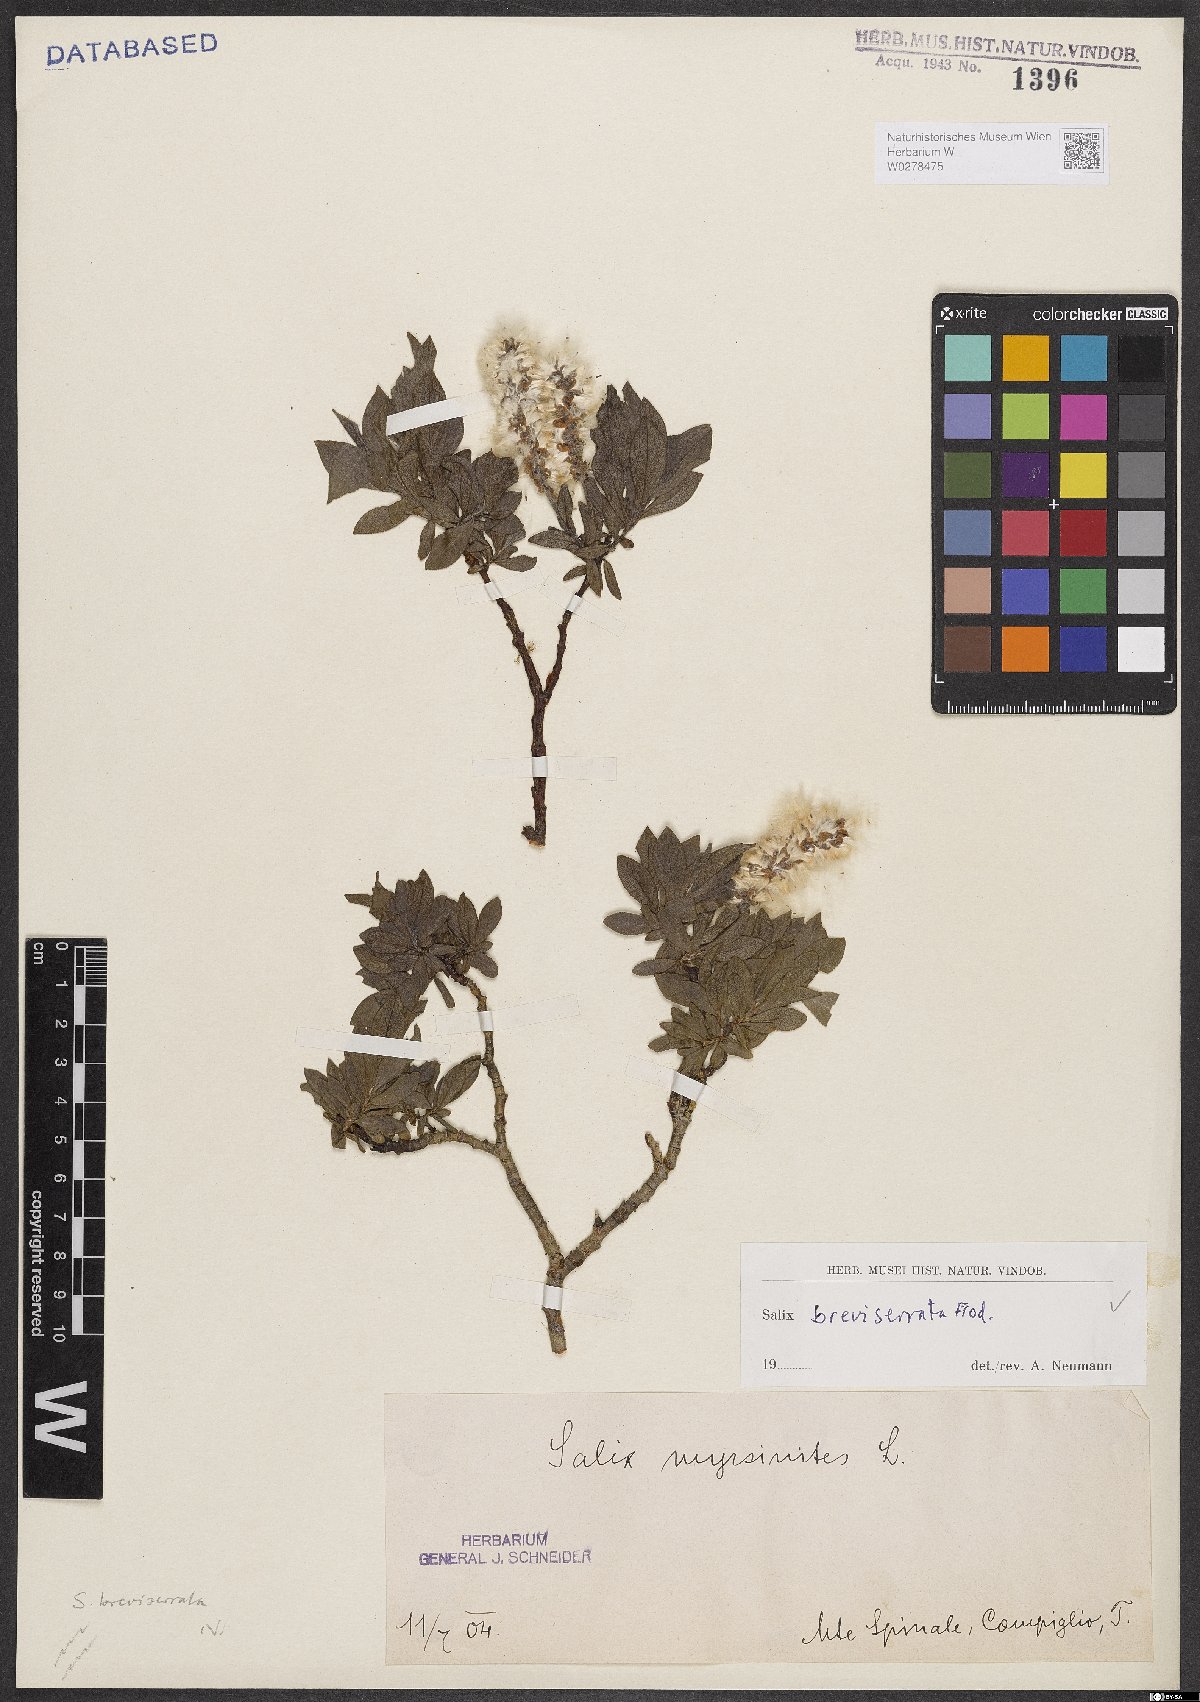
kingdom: Plantae
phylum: Tracheophyta
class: Magnoliopsida
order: Malpighiales
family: Salicaceae
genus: Salix
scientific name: Salix breviserrata
